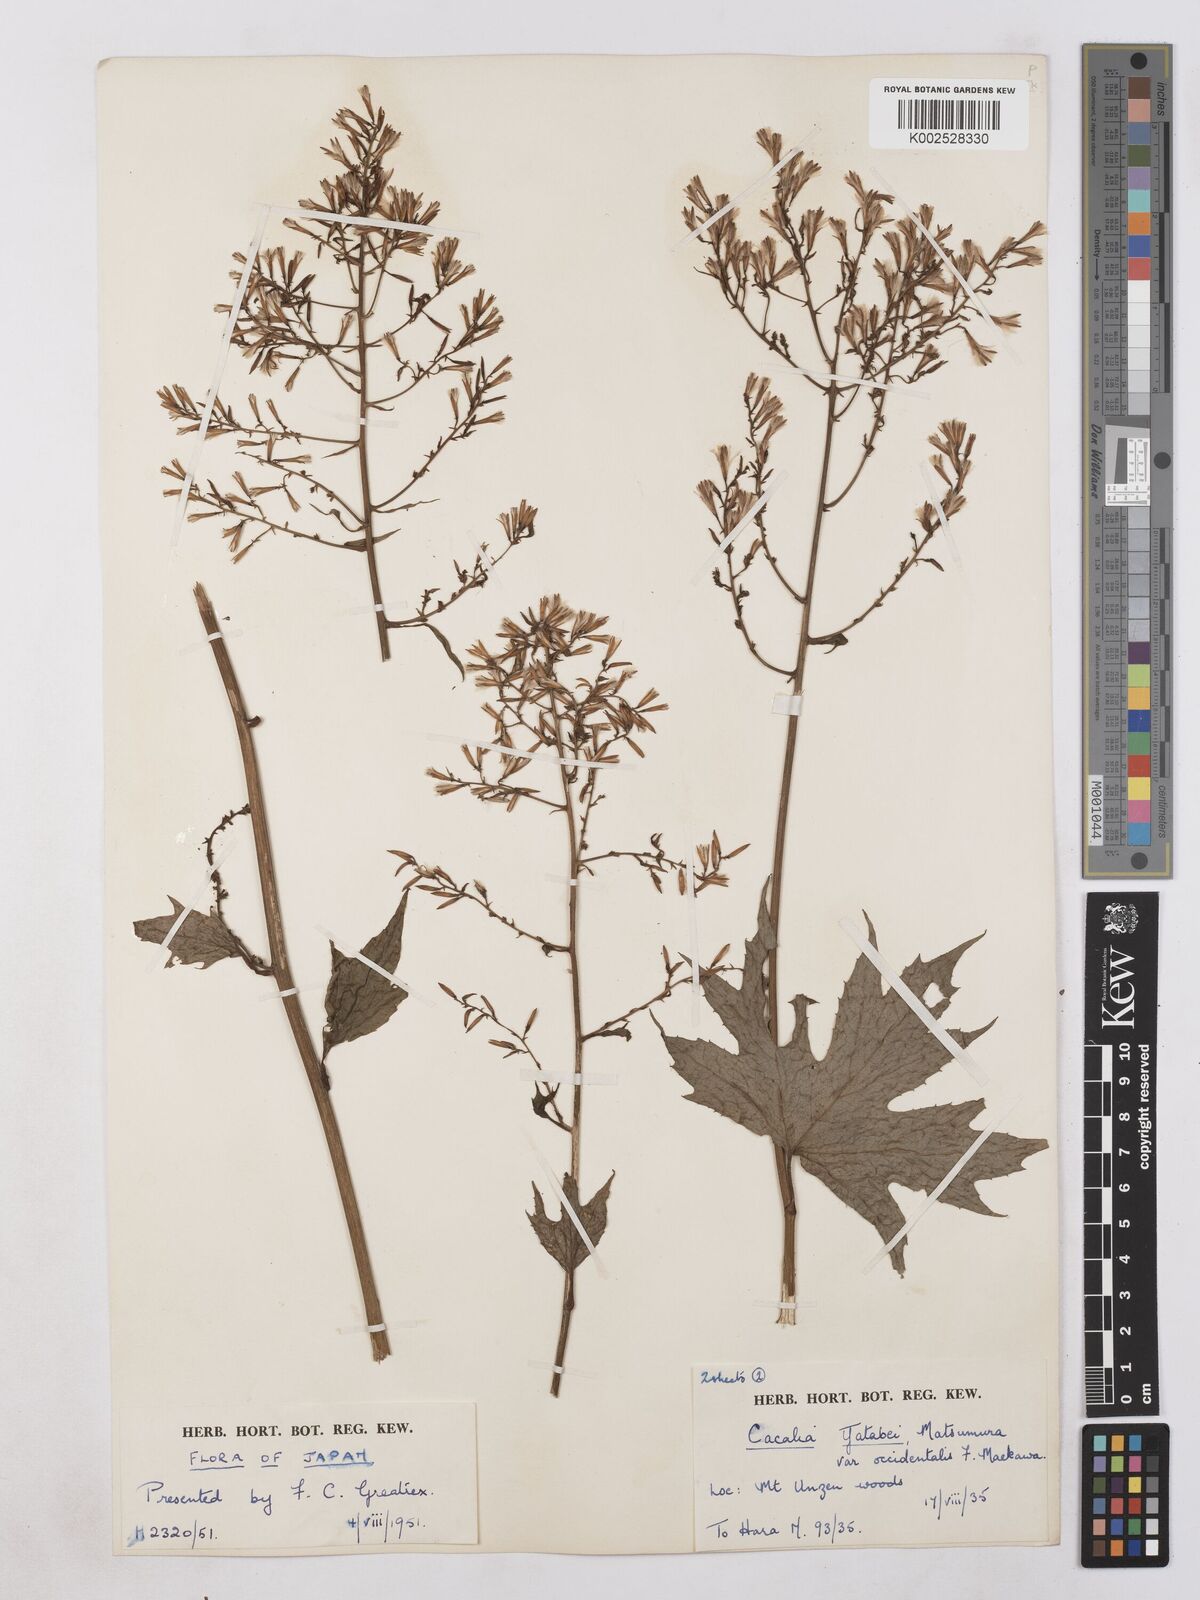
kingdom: Plantae
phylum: Tracheophyta
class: Magnoliopsida
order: Asterales
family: Asteraceae
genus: Taimingasa
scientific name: Taimingasa yatabei
